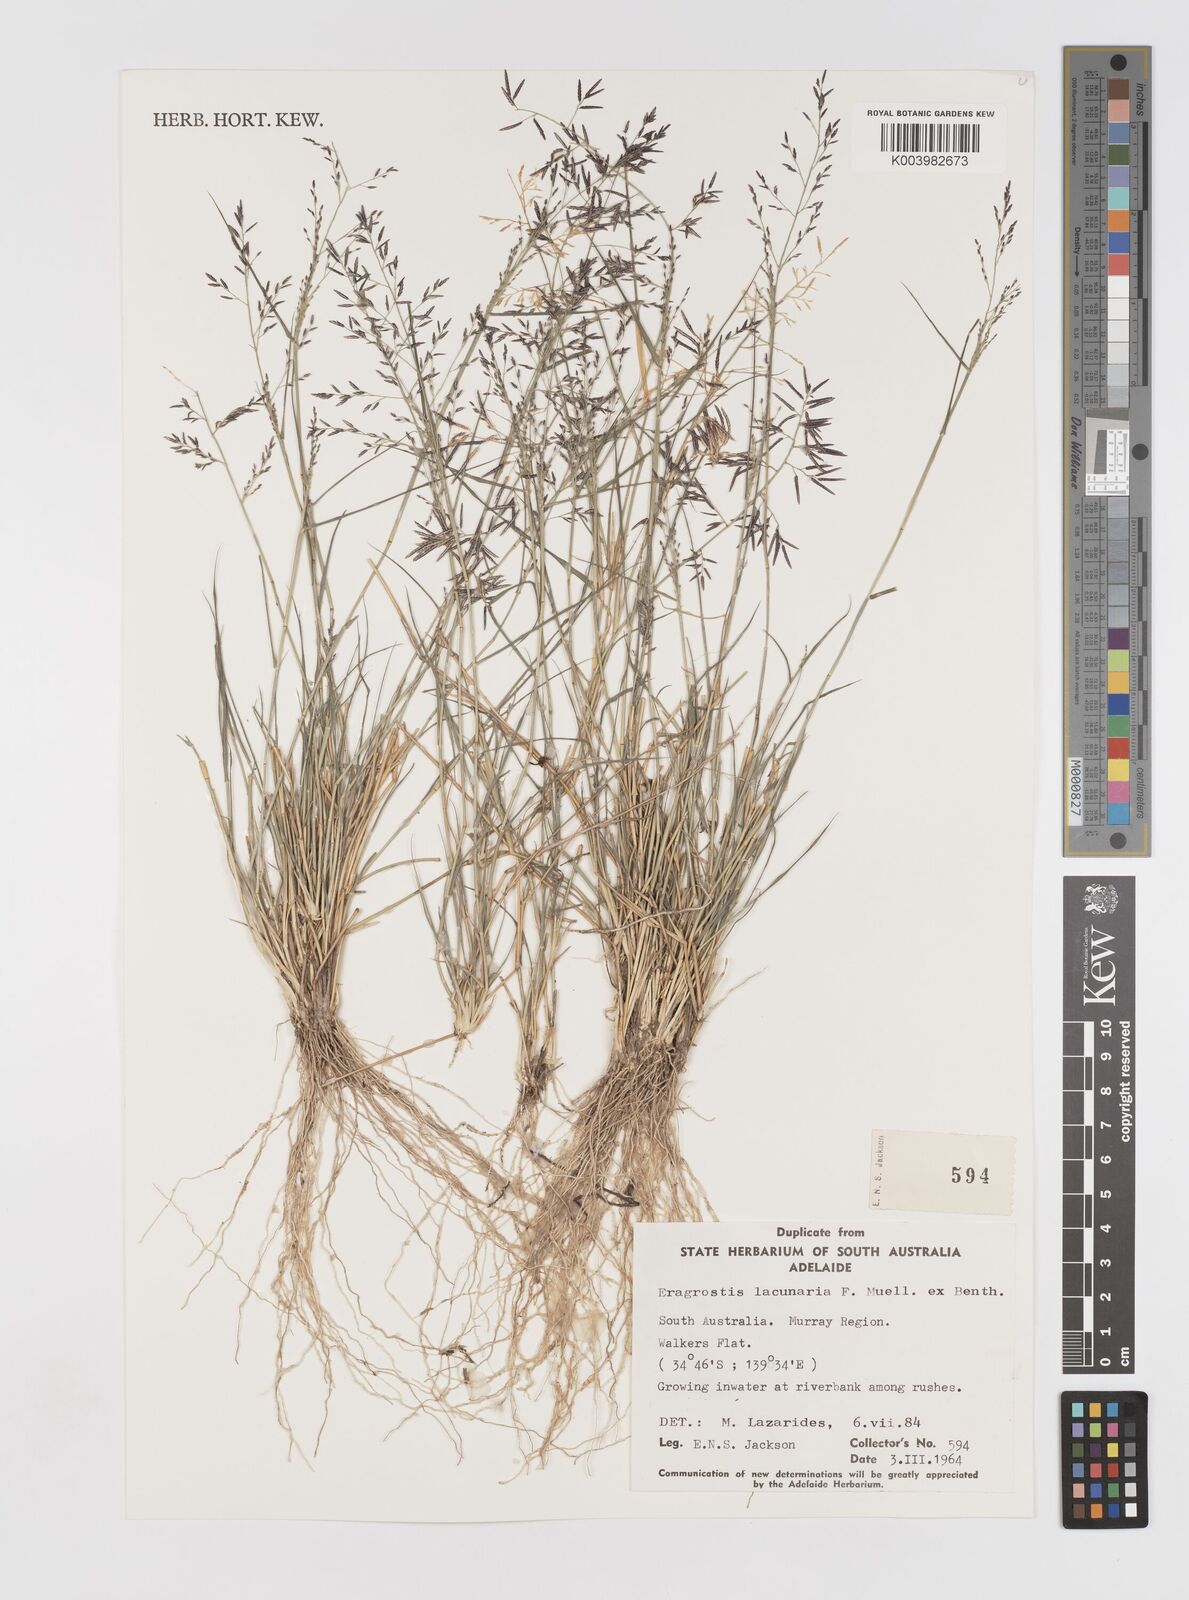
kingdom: Plantae
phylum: Tracheophyta
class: Liliopsida
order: Poales
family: Poaceae
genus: Eragrostis
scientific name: Eragrostis lacunaria
